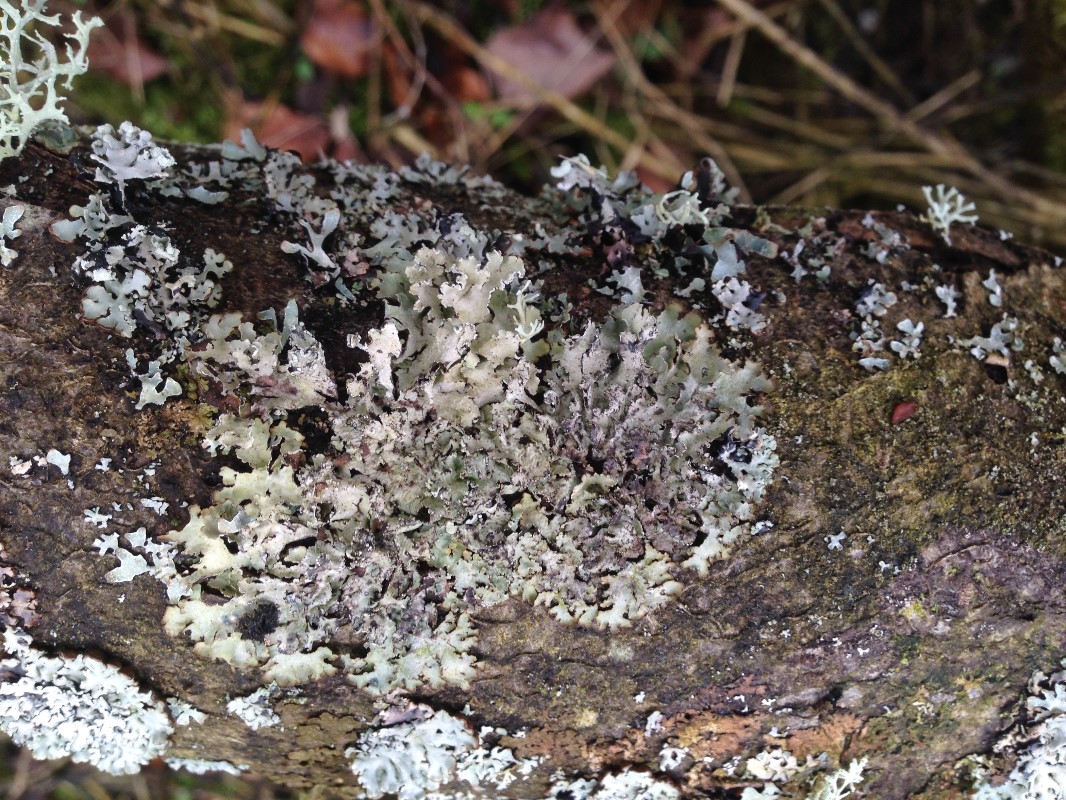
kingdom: Fungi
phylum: Ascomycota
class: Lecanoromycetes
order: Lecanorales
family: Parmeliaceae
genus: Punctelia
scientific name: Punctelia jeckeri
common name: randstøvet skållav
